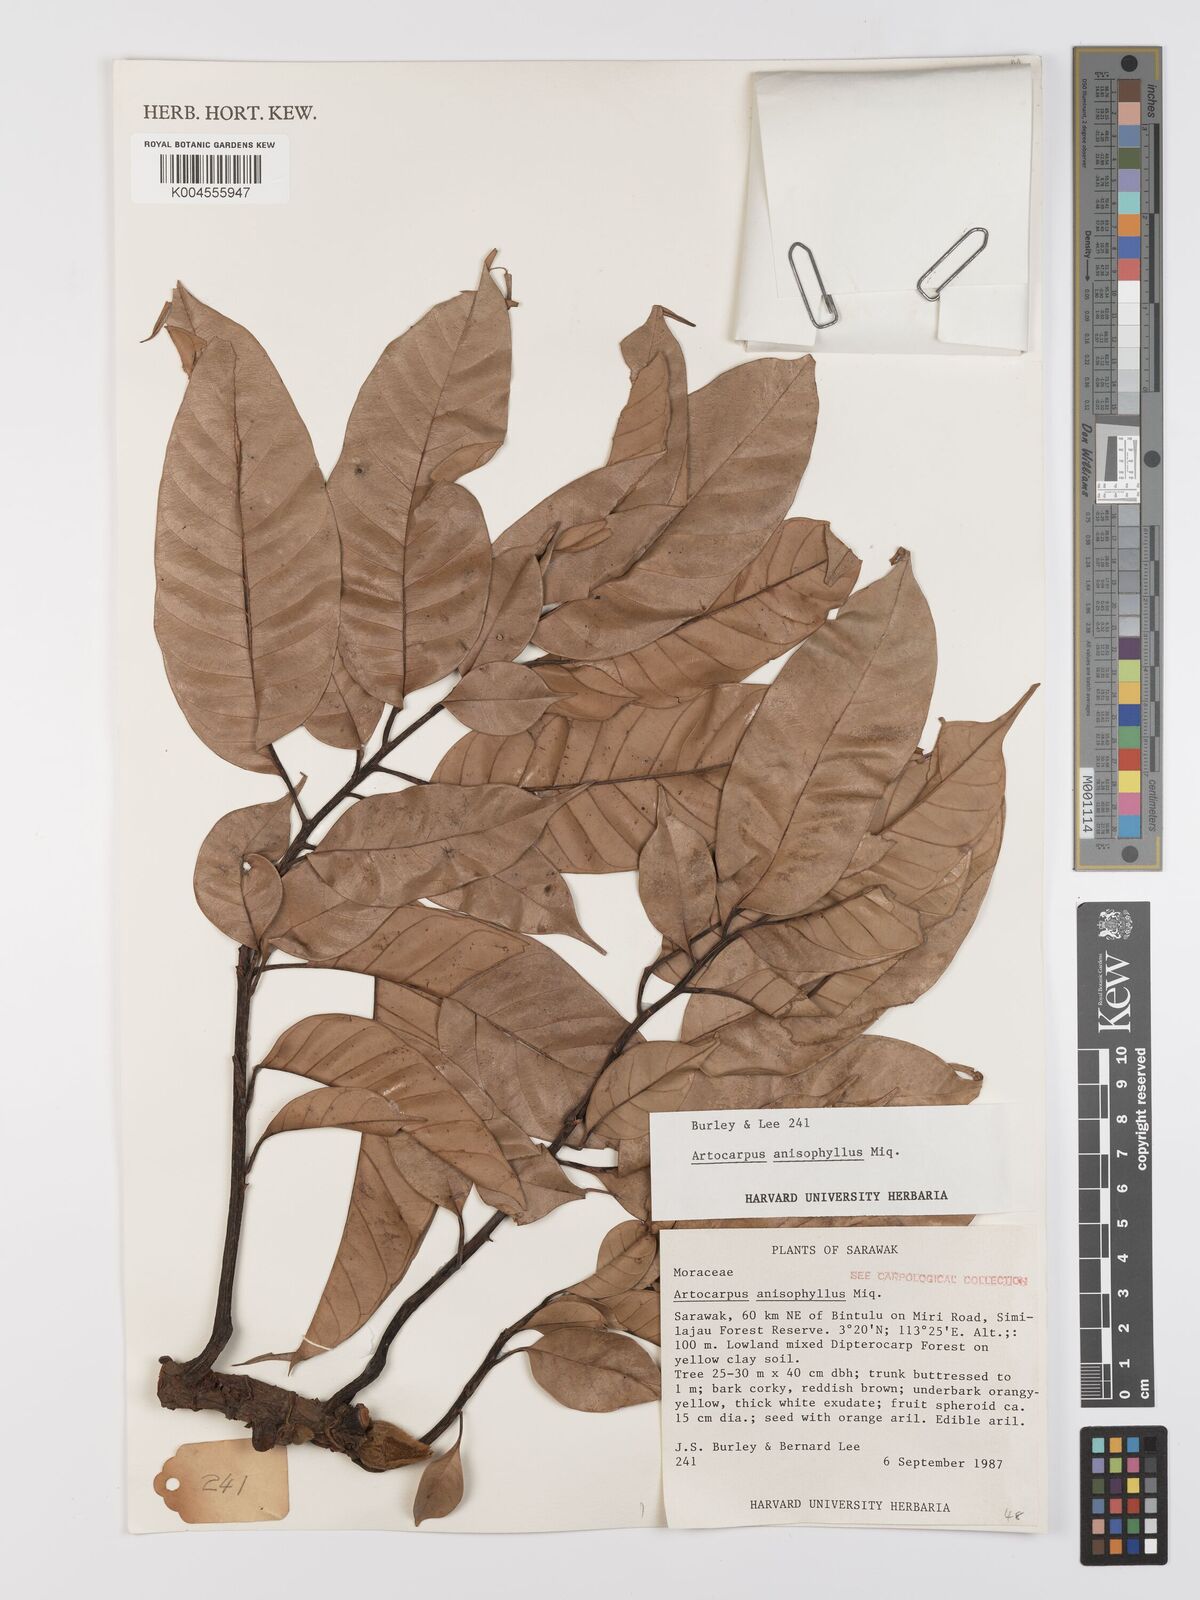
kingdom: Plantae
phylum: Tracheophyta
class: Magnoliopsida
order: Rosales
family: Moraceae
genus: Artocarpus
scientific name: Artocarpus anisophyllus
